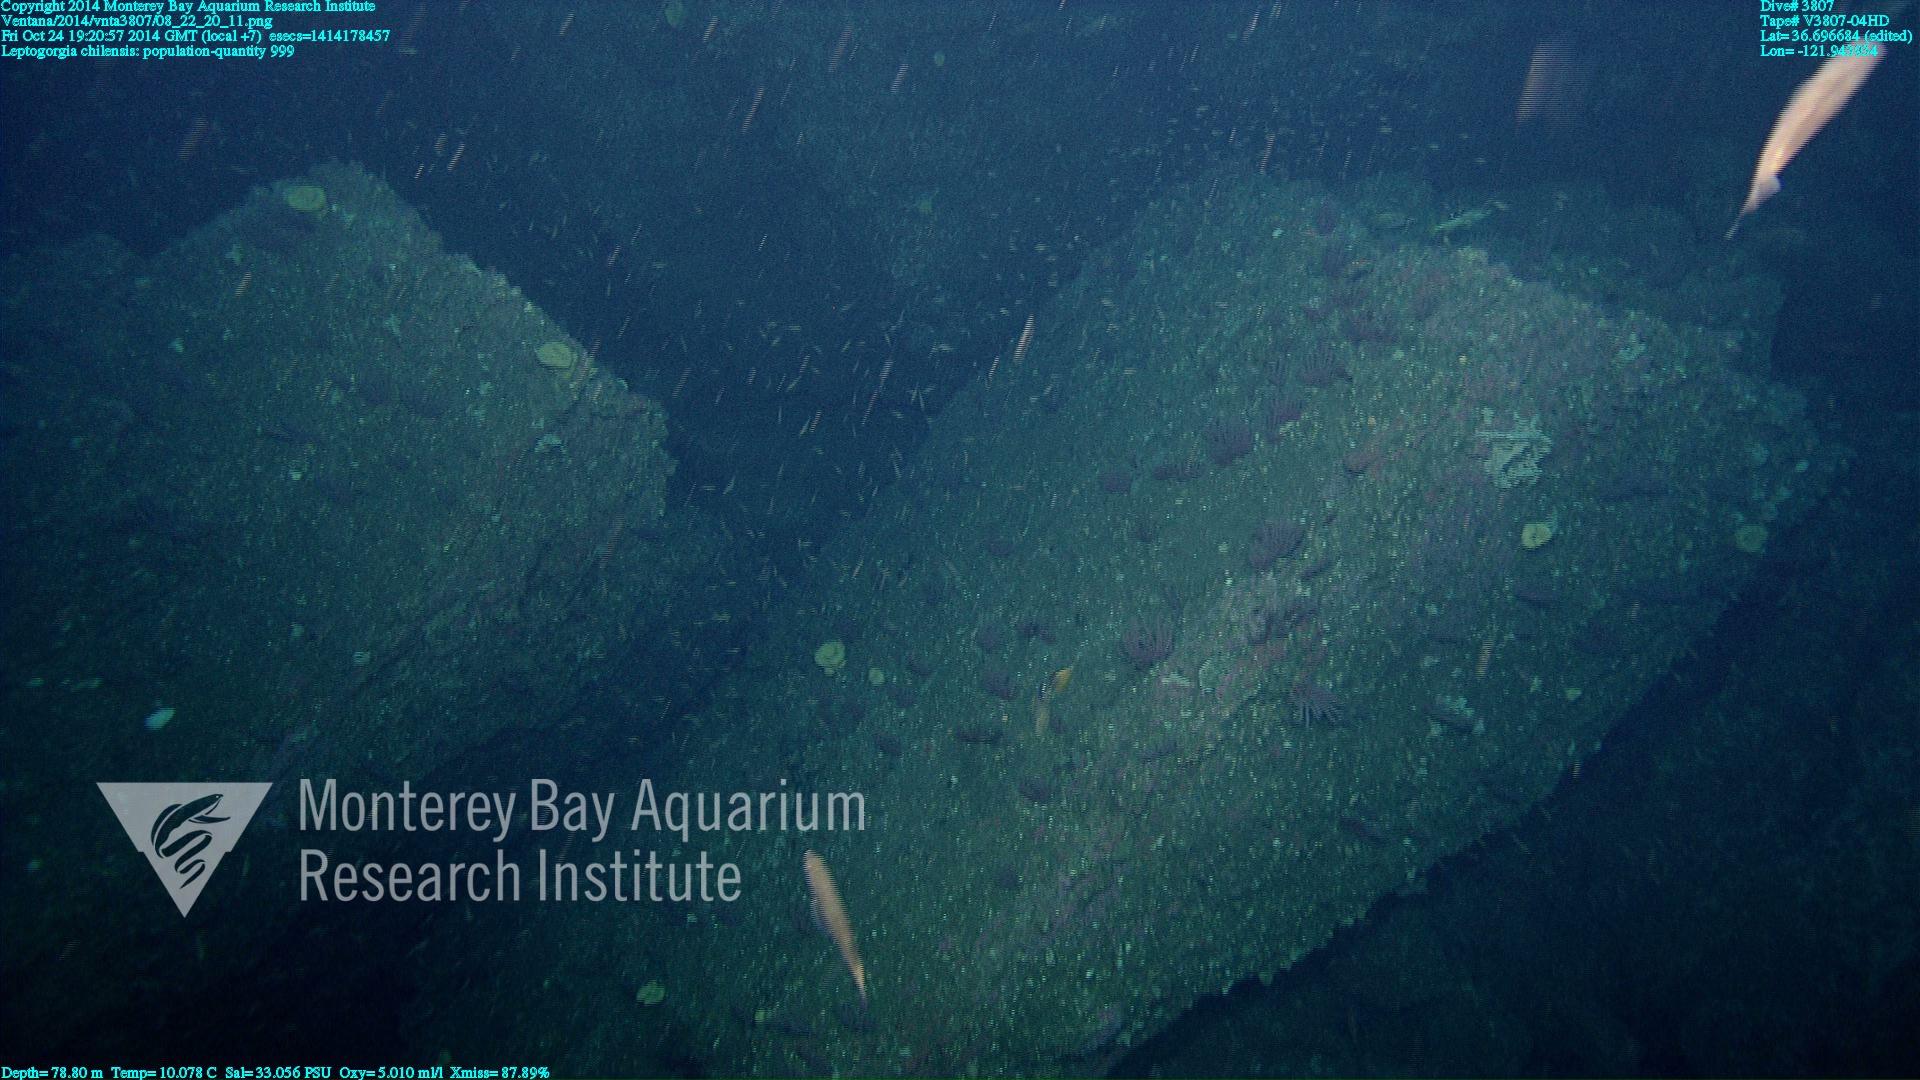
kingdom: Animalia
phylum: Cnidaria
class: Anthozoa
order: Malacalcyonacea
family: Gorgoniidae
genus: Leptogorgia
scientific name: Leptogorgia chilensis
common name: Carmine sea spray
